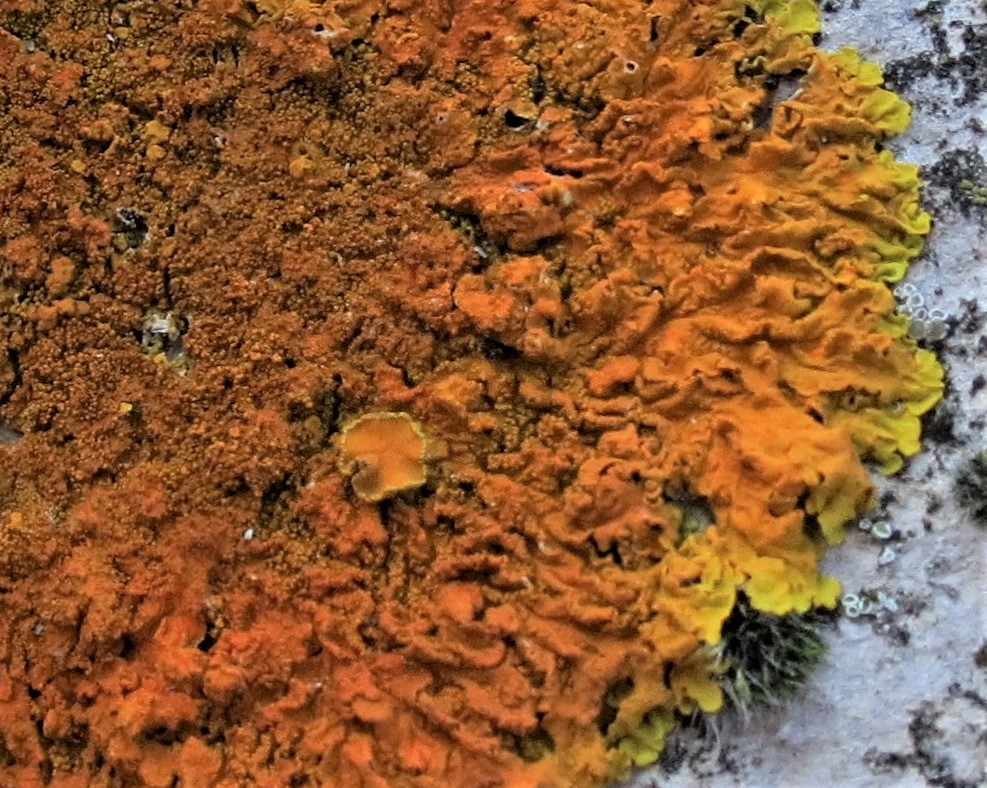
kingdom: Fungi
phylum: Ascomycota
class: Lecanoromycetes
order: Teloschistales
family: Teloschistaceae
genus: Xanthoria
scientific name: Xanthoria calcicola
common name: vortet væggelav
